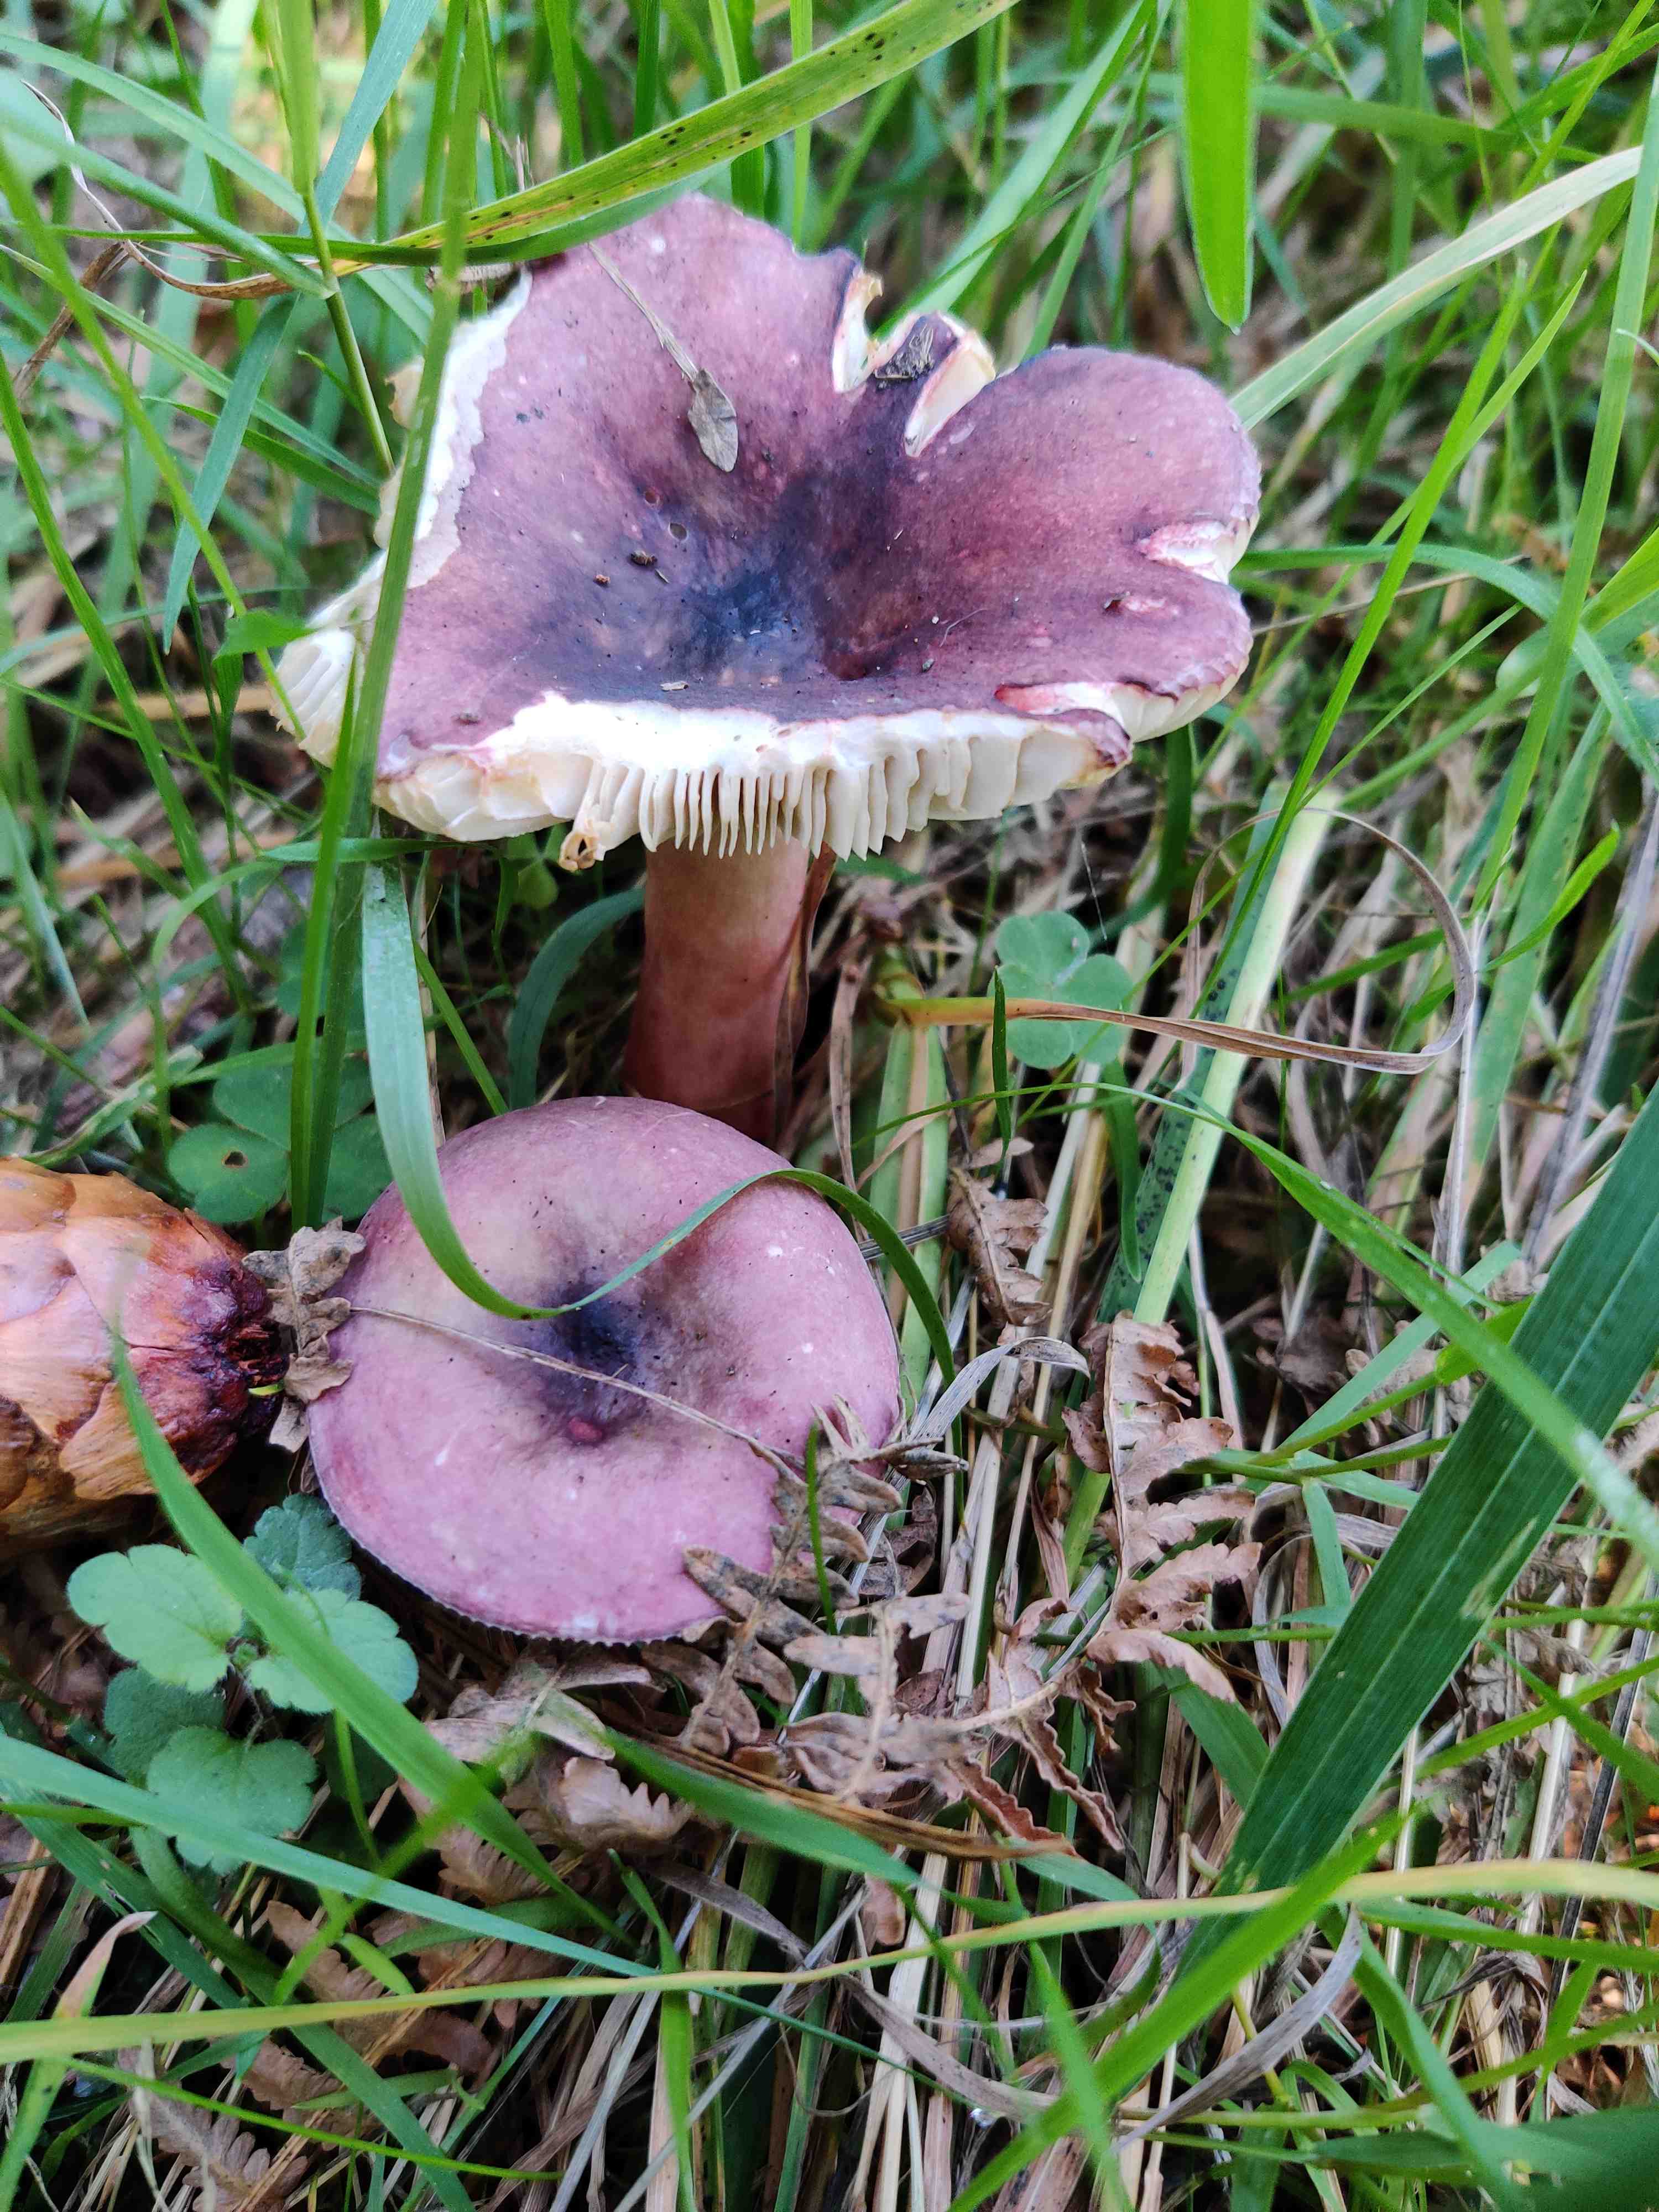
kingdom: Fungi
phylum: Basidiomycota
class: Agaricomycetes
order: Russulales
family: Russulaceae
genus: Russula
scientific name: Russula queletii
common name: Quélets skørhat
